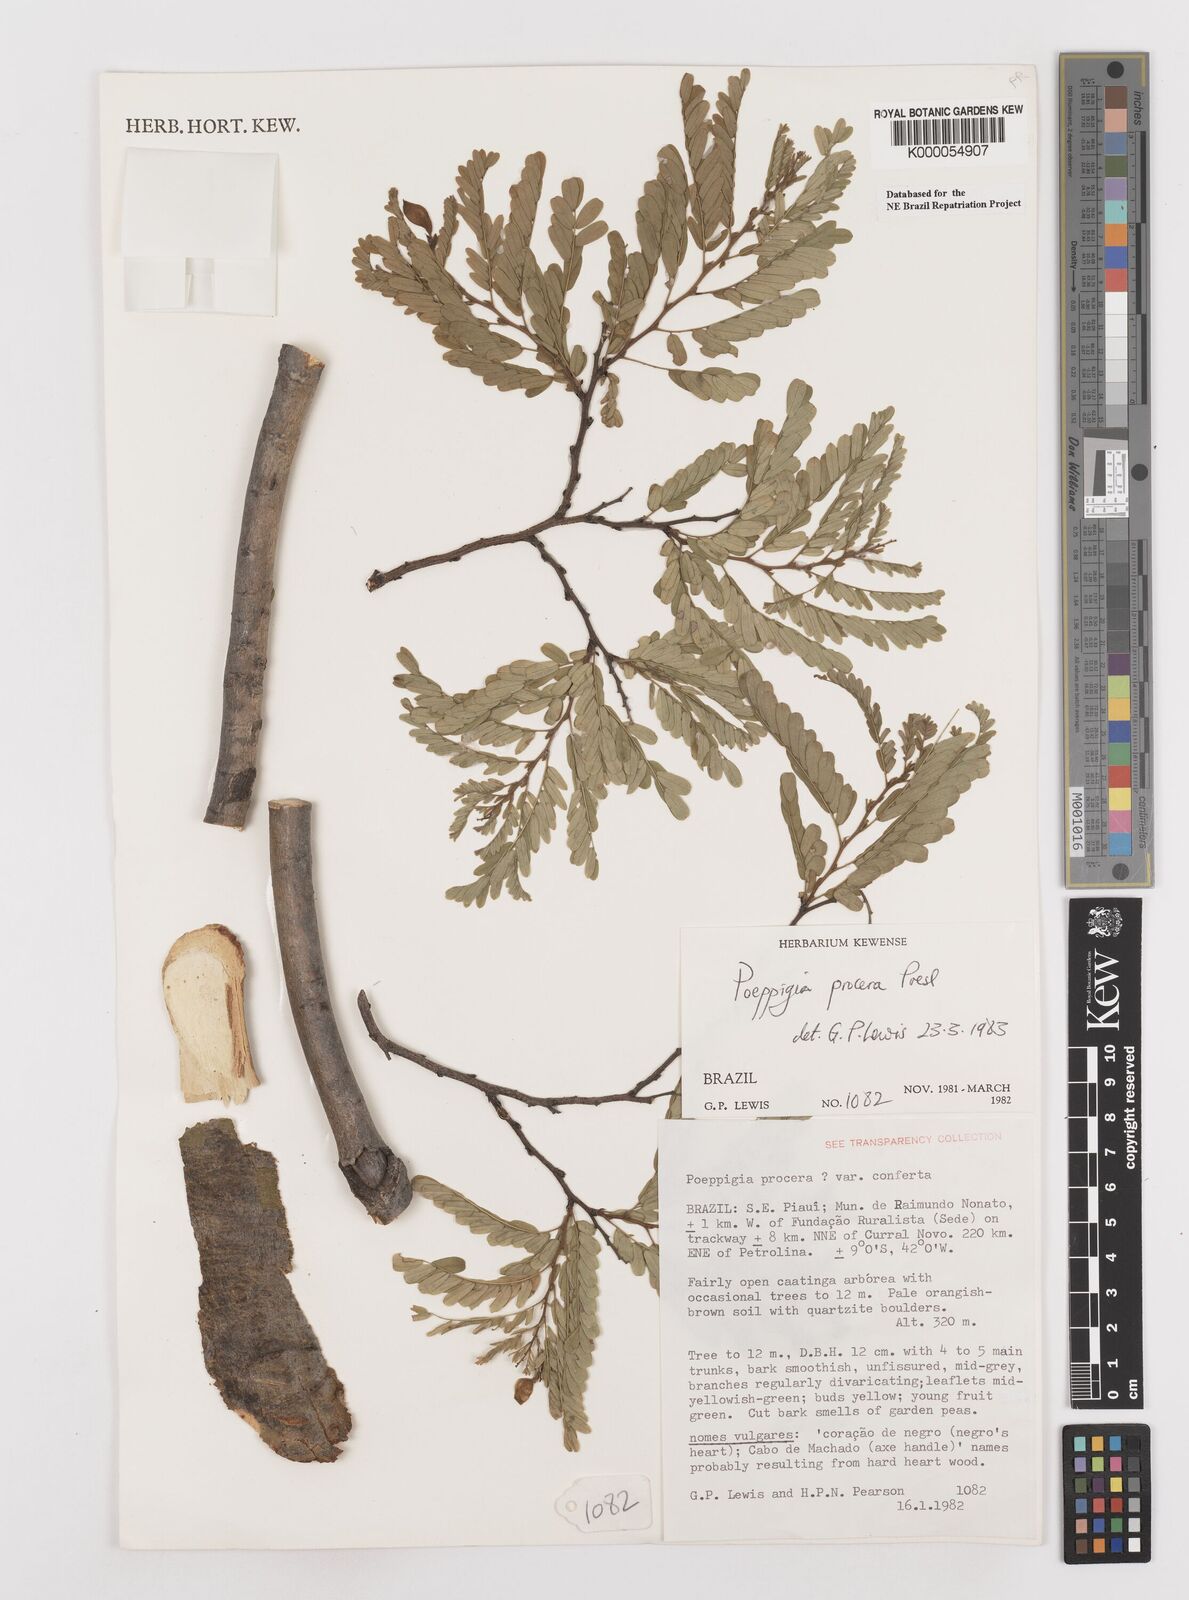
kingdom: Plantae
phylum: Tracheophyta
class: Magnoliopsida
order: Fabales
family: Fabaceae
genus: Poeppigia
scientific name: Poeppigia procera
